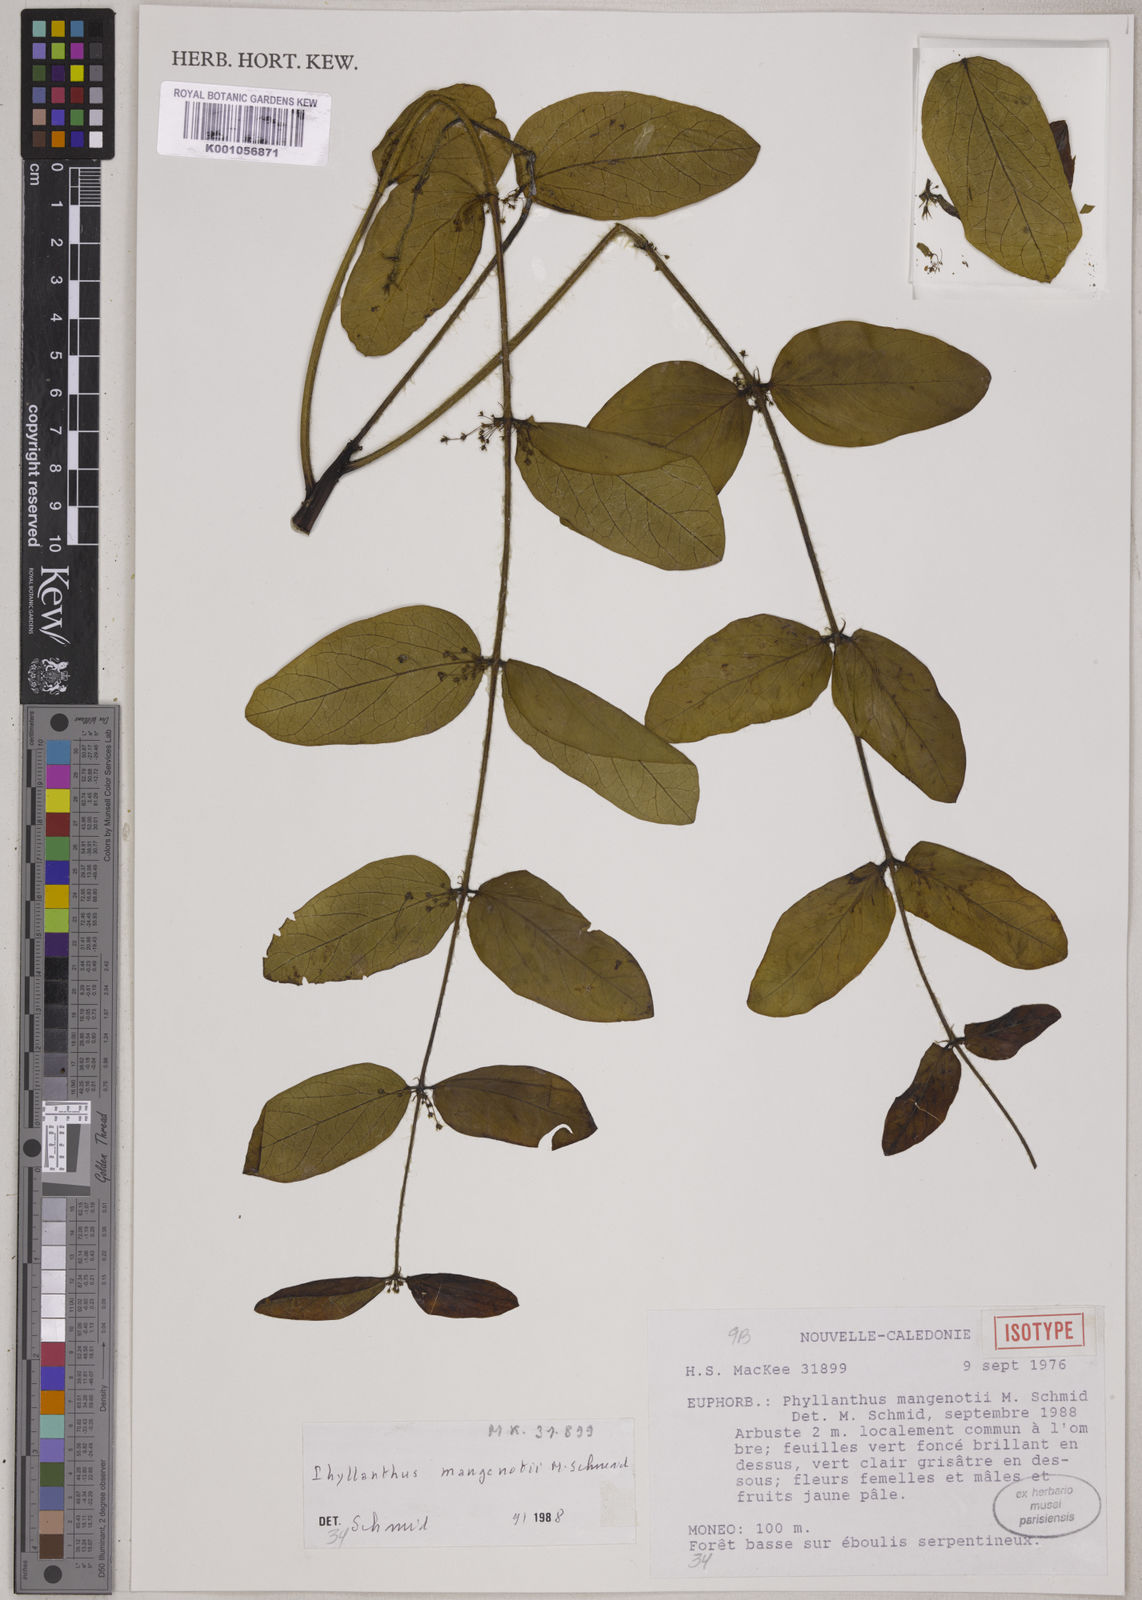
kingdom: Plantae
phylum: Tracheophyta
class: Magnoliopsida
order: Malpighiales
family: Phyllanthaceae
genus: Phyllanthus
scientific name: Phyllanthus mangenotii
